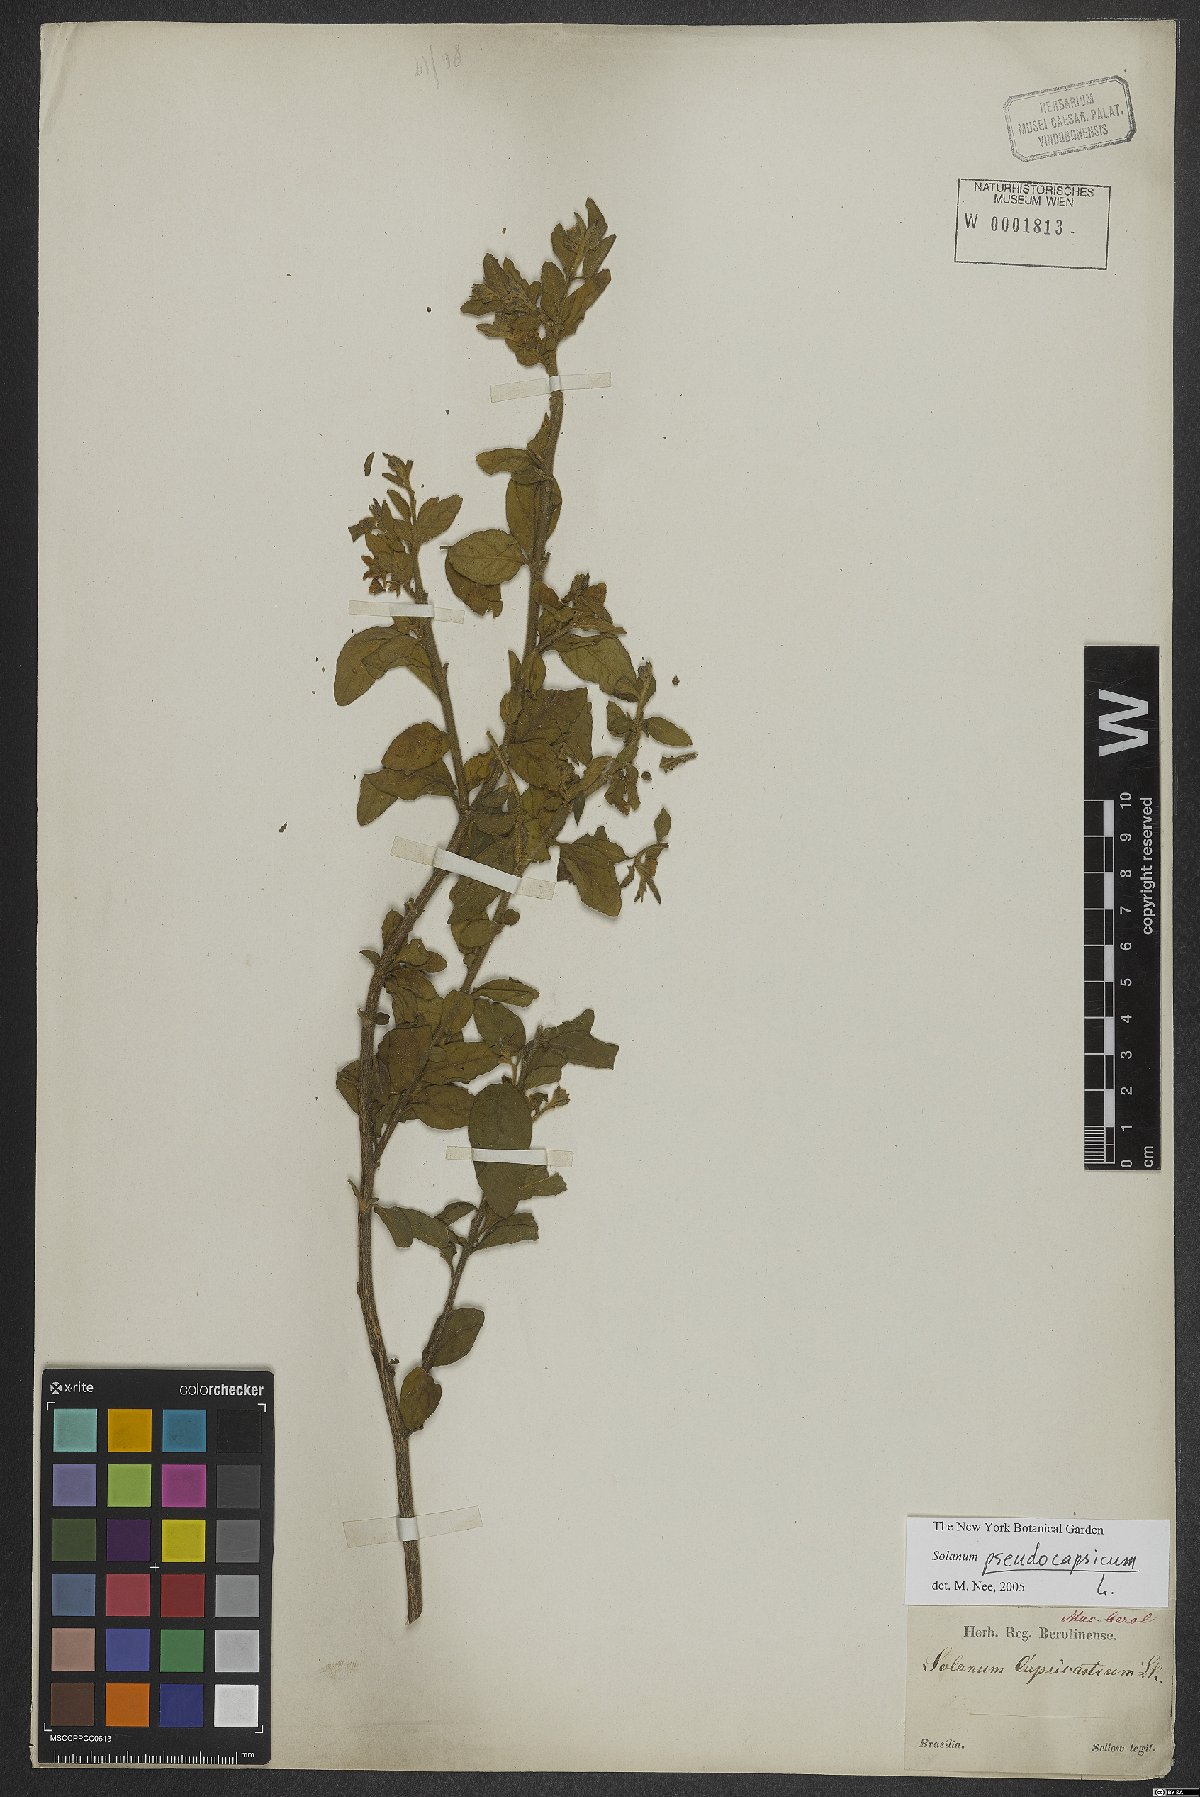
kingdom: Plantae
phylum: Tracheophyta
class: Magnoliopsida
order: Solanales
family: Solanaceae
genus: Solanum
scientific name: Solanum pseudocapsicum
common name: Jerusalem cherry
